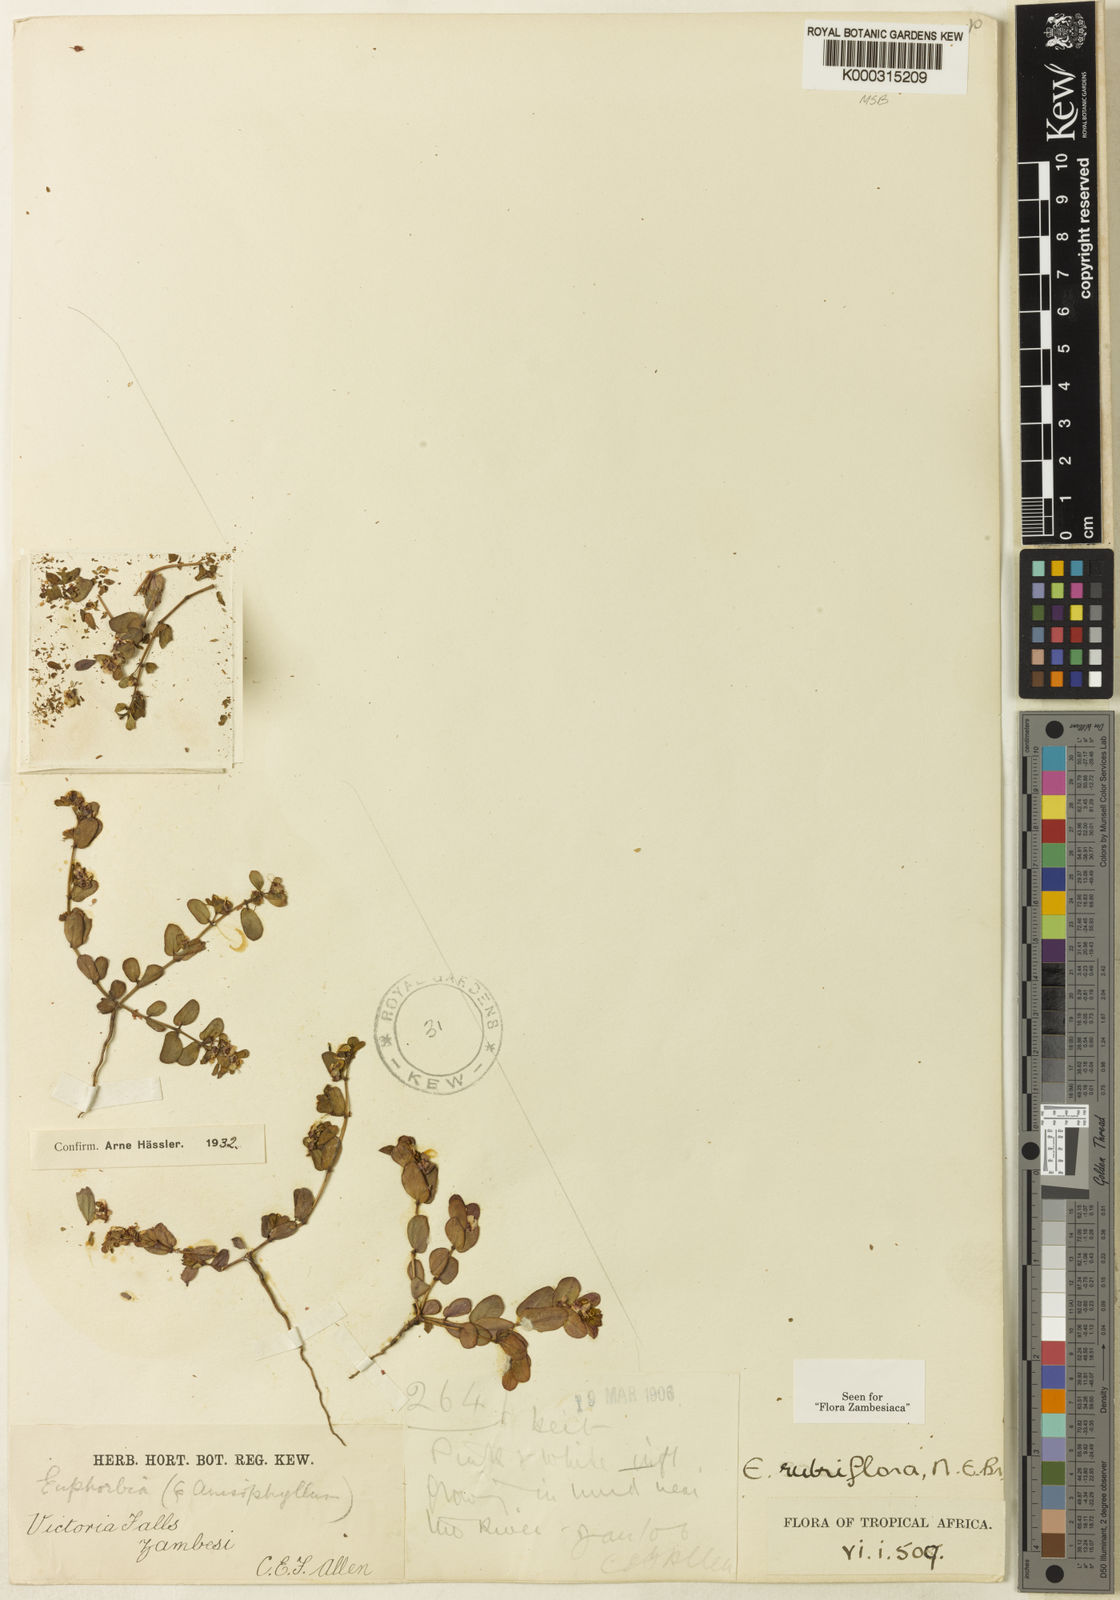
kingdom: Plantae
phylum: Tracheophyta
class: Magnoliopsida
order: Malpighiales
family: Euphorbiaceae
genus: Euphorbia
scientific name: Euphorbia rubriflora
